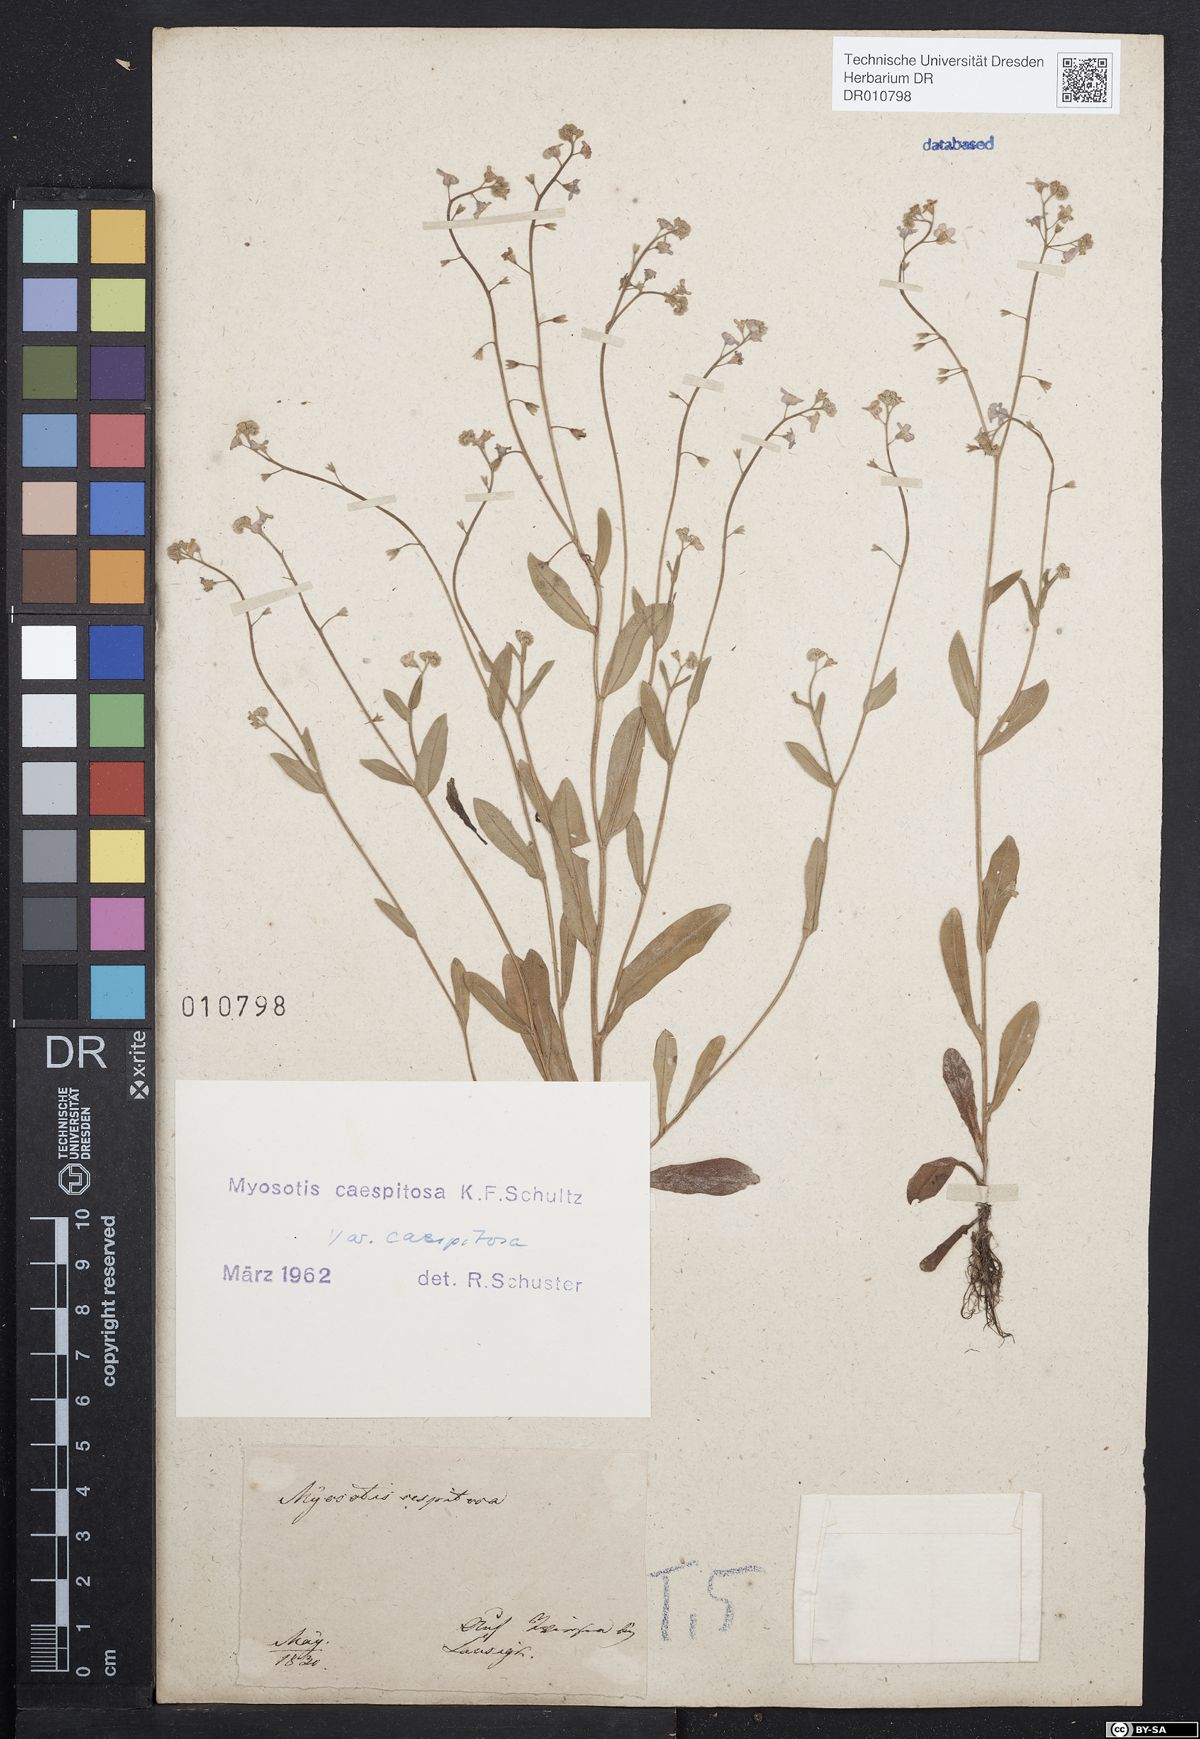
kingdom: Plantae
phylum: Tracheophyta
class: Magnoliopsida
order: Boraginales
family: Boraginaceae
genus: Myosotis
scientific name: Myosotis laxa
